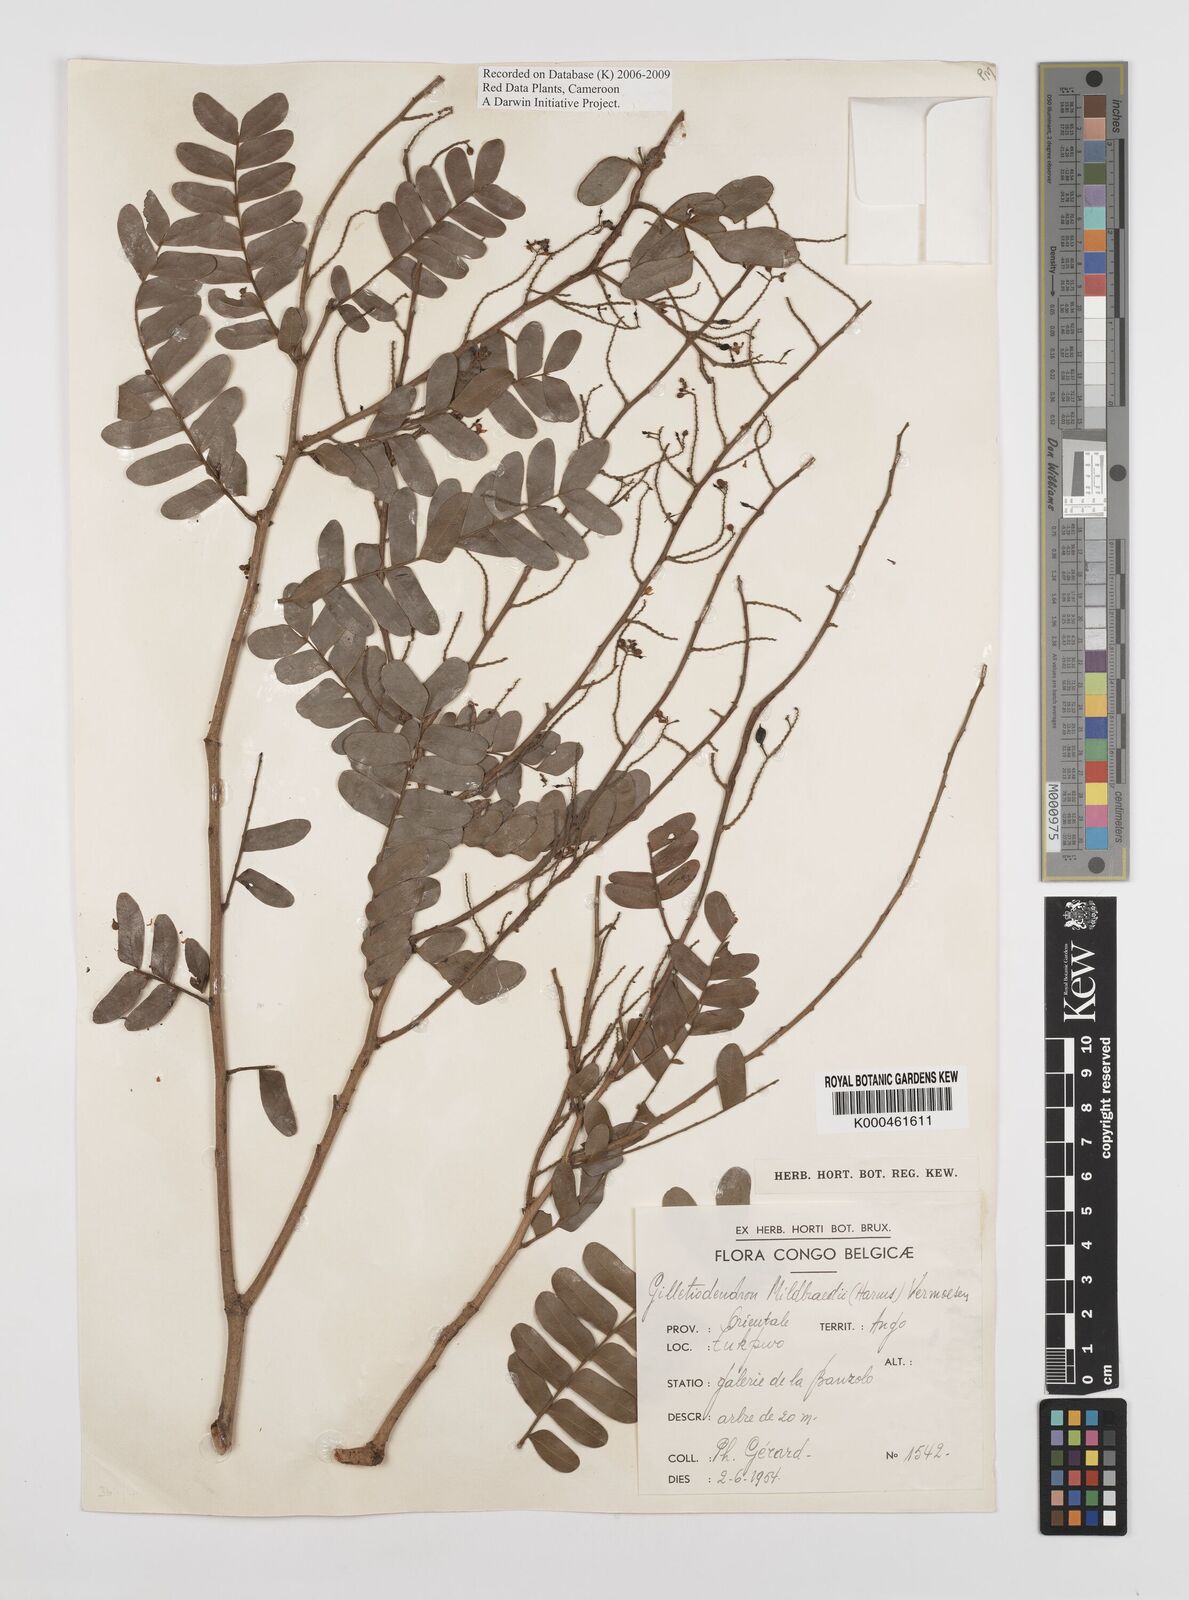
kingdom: Plantae
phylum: Tracheophyta
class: Magnoliopsida
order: Fabales
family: Fabaceae
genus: Gilletiodendron
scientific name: Gilletiodendron mildbraedii
